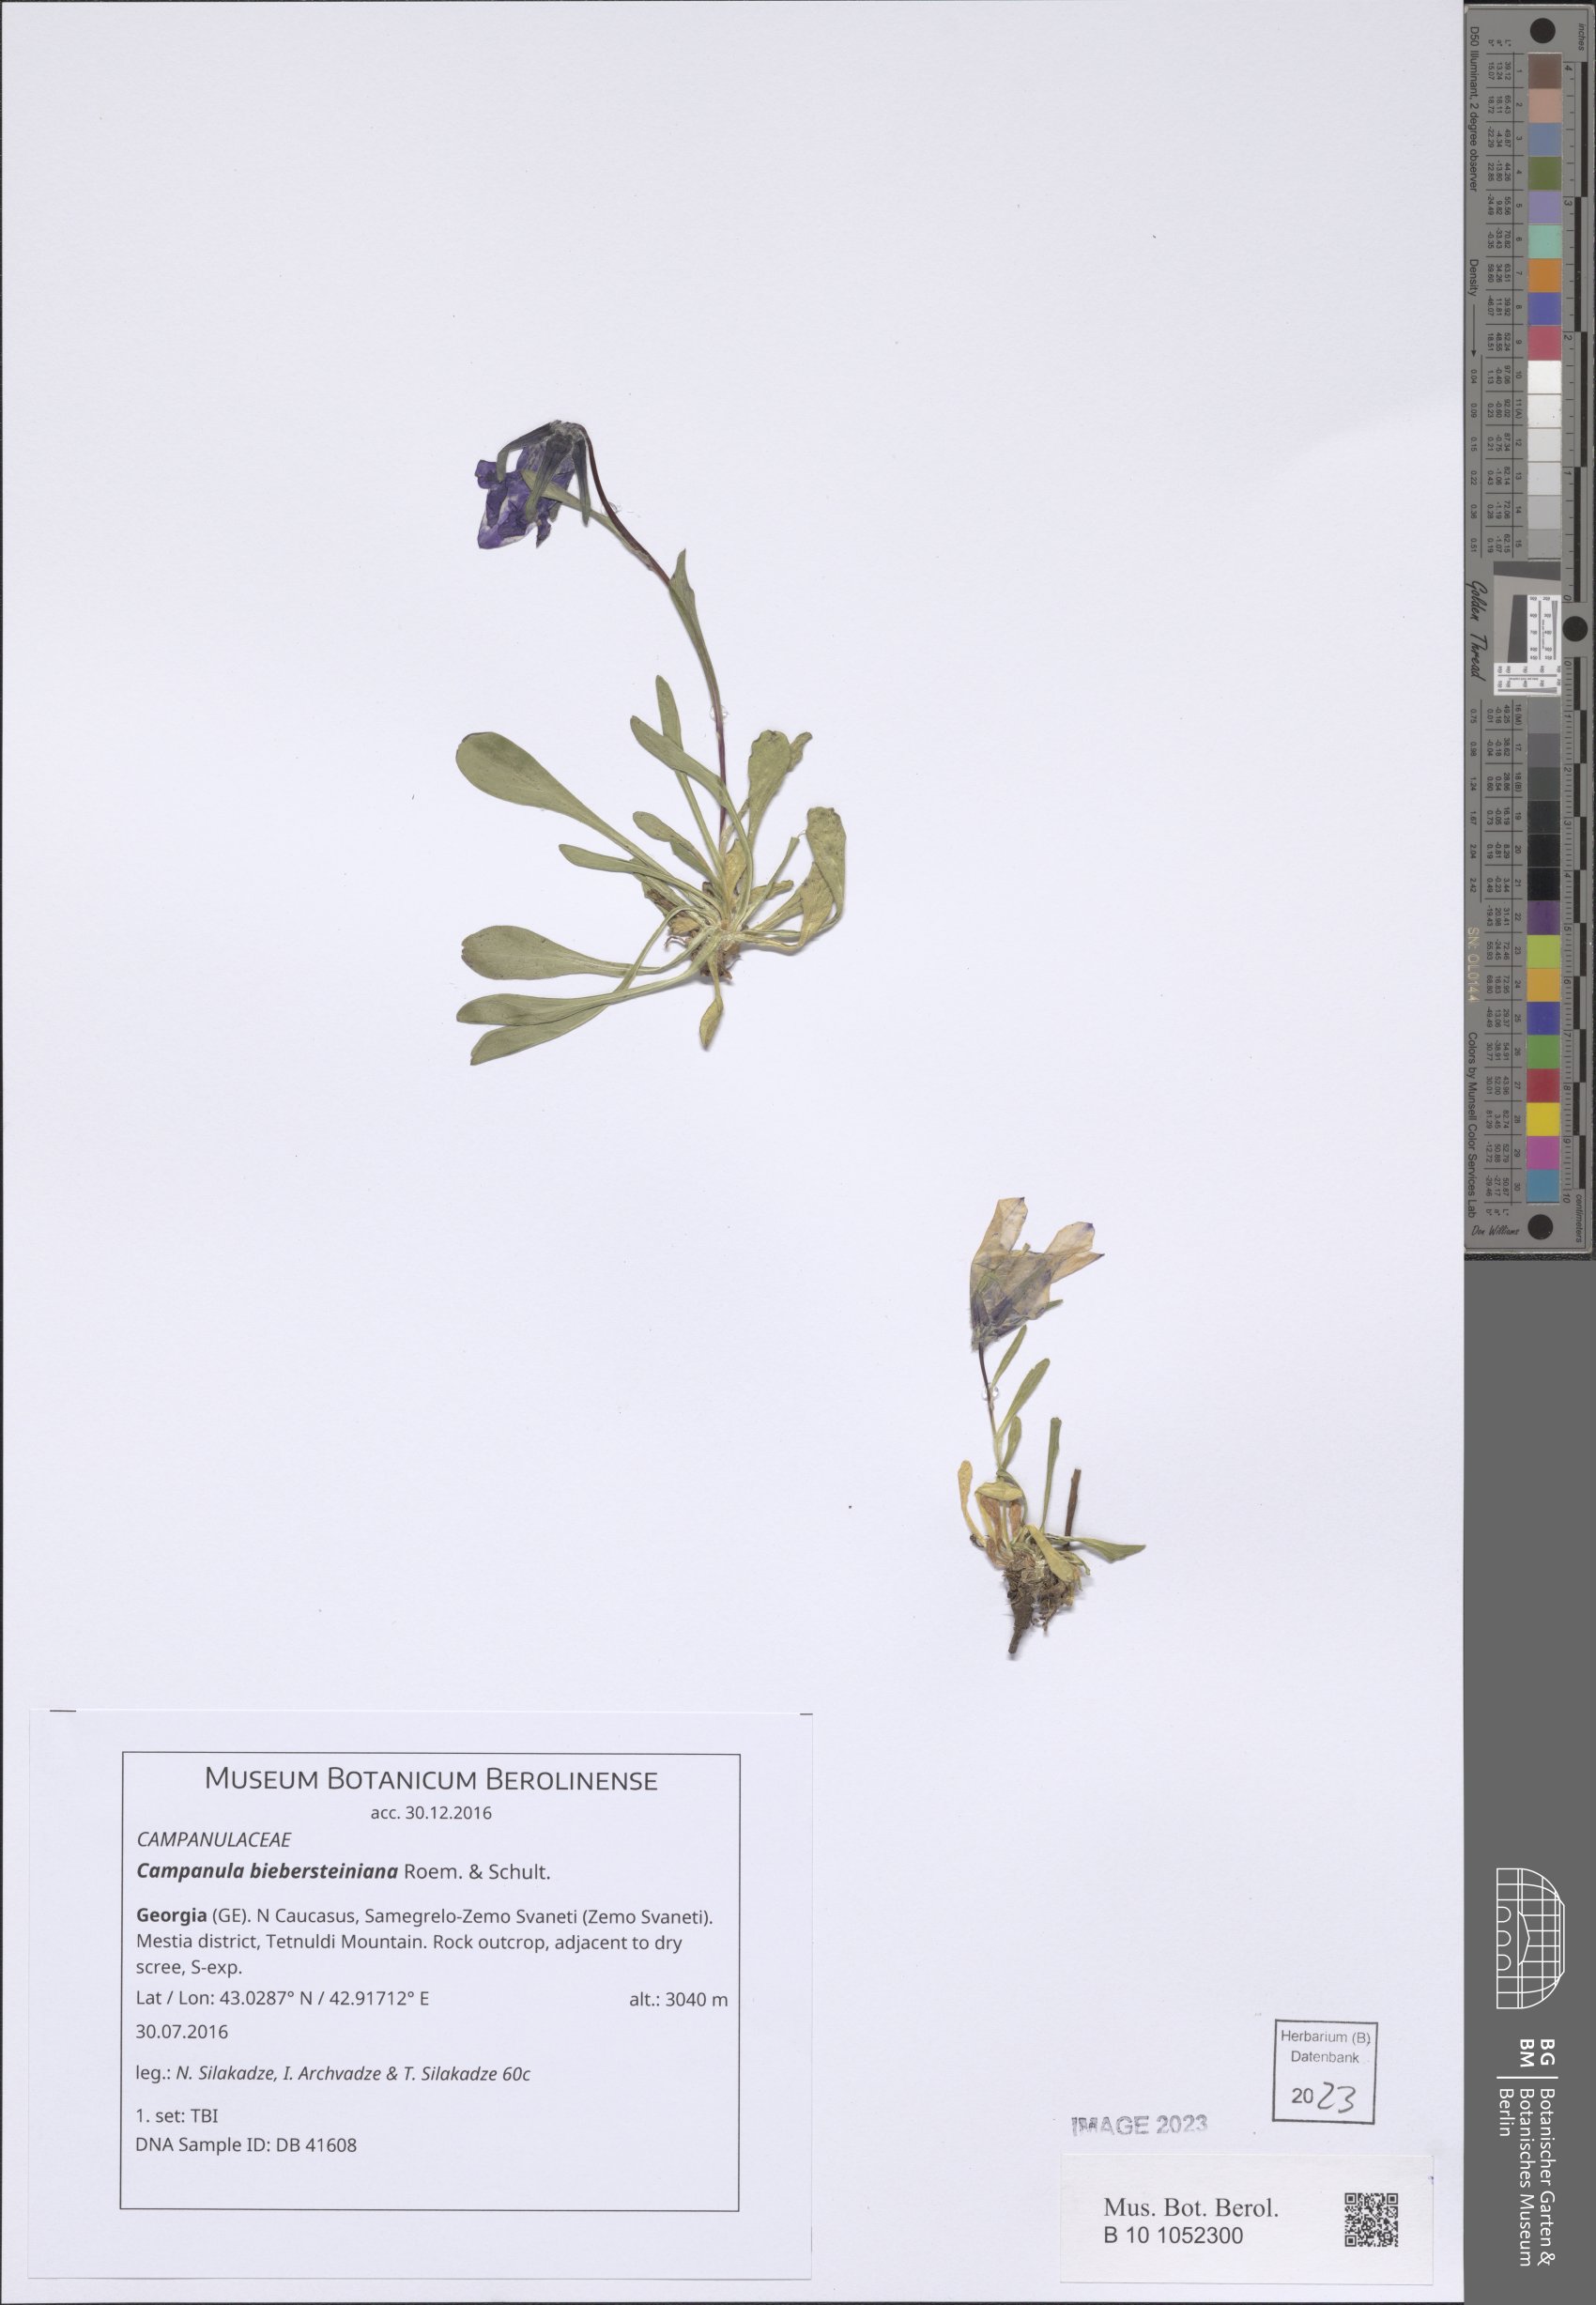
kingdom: Plantae
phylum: Tracheophyta
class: Magnoliopsida
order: Asterales
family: Campanulaceae
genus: Campanula
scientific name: Campanula tridentata
